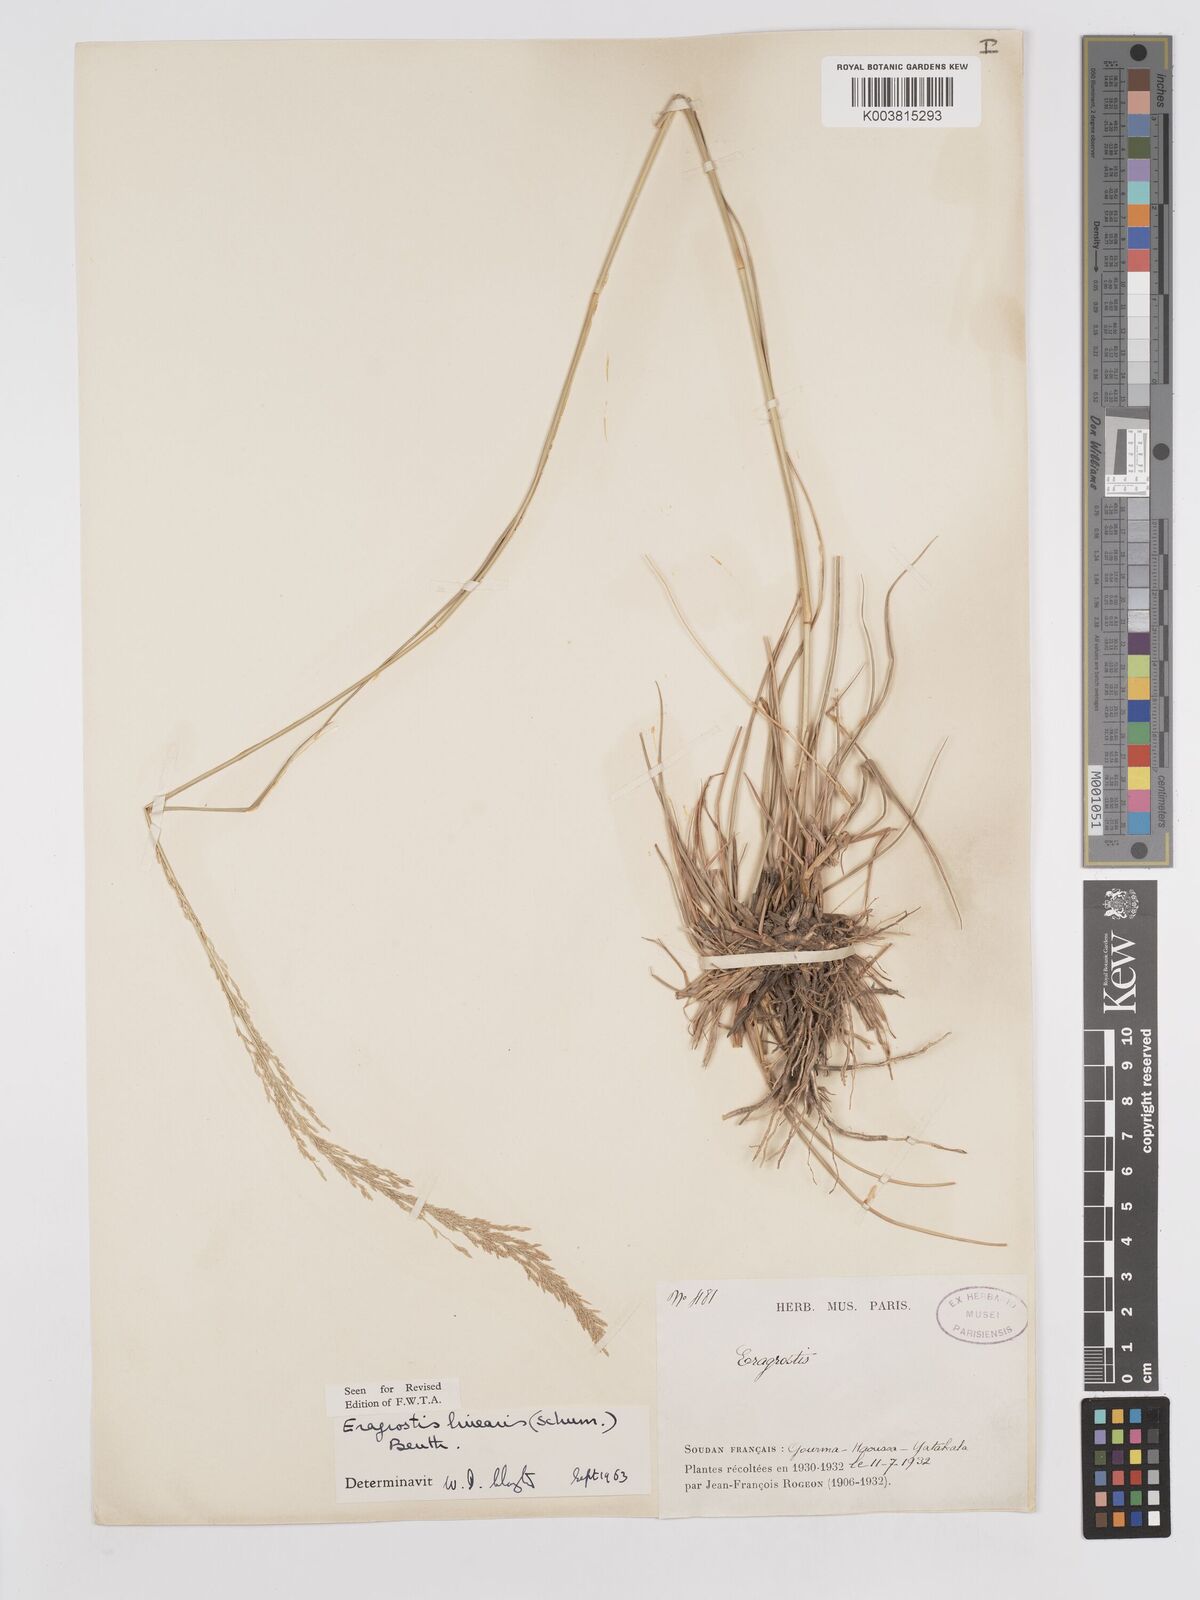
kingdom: Plantae
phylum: Tracheophyta
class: Liliopsida
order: Poales
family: Poaceae
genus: Eragrostis
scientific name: Eragrostis prolifera
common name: Dominican lovegrass
